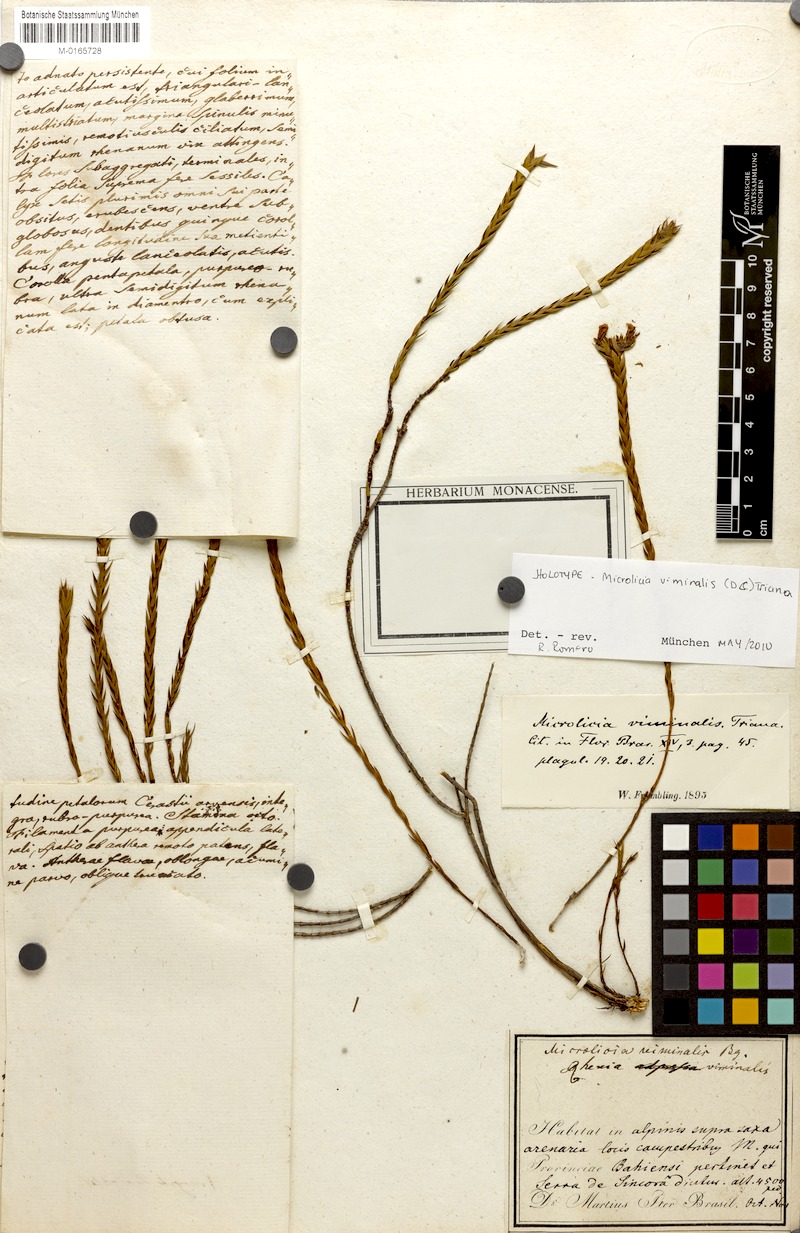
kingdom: Plantae
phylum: Tracheophyta
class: Magnoliopsida
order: Myrtales
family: Melastomataceae
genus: Microlicia
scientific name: Microlicia viminalis
